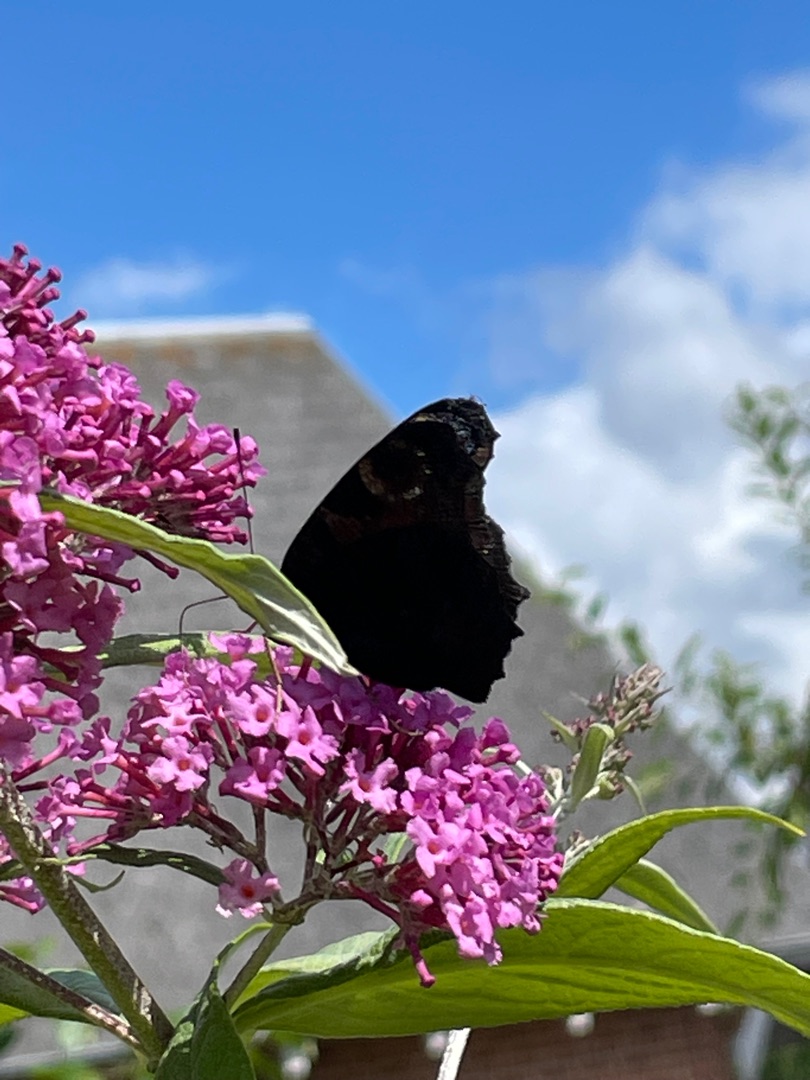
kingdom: Animalia
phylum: Arthropoda
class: Insecta
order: Lepidoptera
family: Nymphalidae
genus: Aglais
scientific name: Aglais io
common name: Dagpåfugleøje
